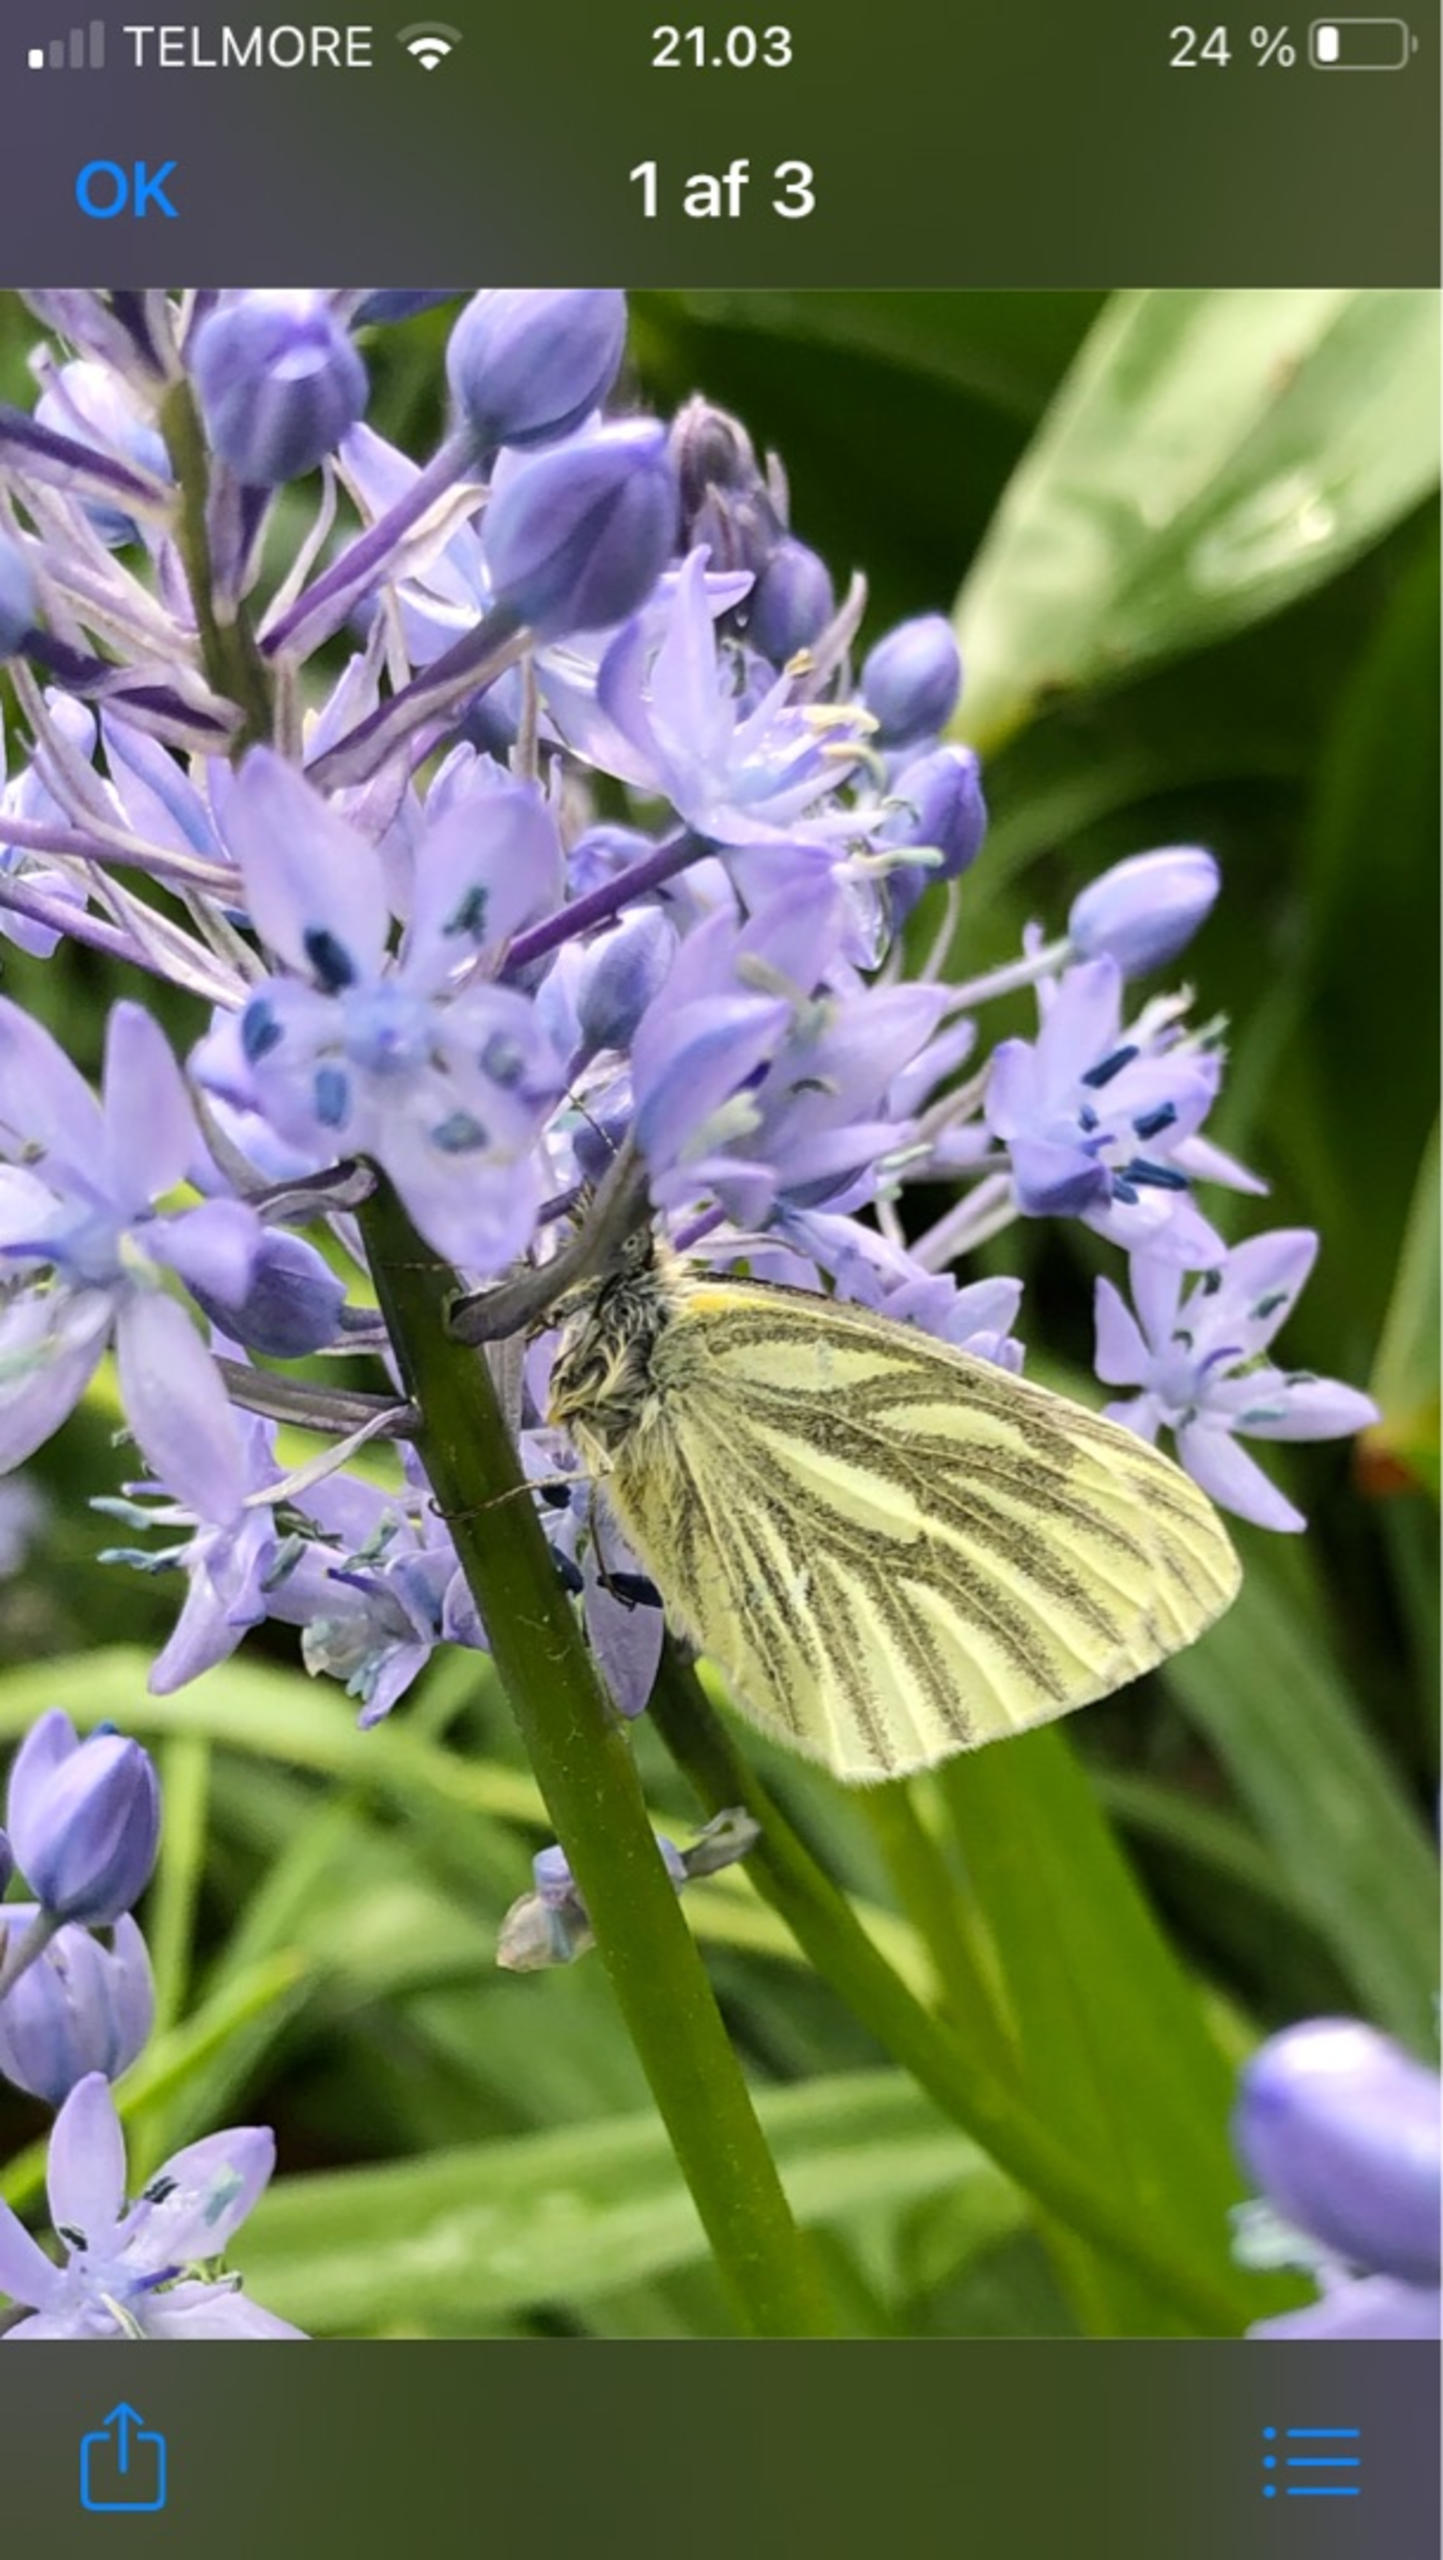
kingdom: Animalia
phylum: Arthropoda
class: Insecta
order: Lepidoptera
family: Pieridae
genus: Pieris
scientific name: Pieris napi
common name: Grønåret kålsommerfugl
